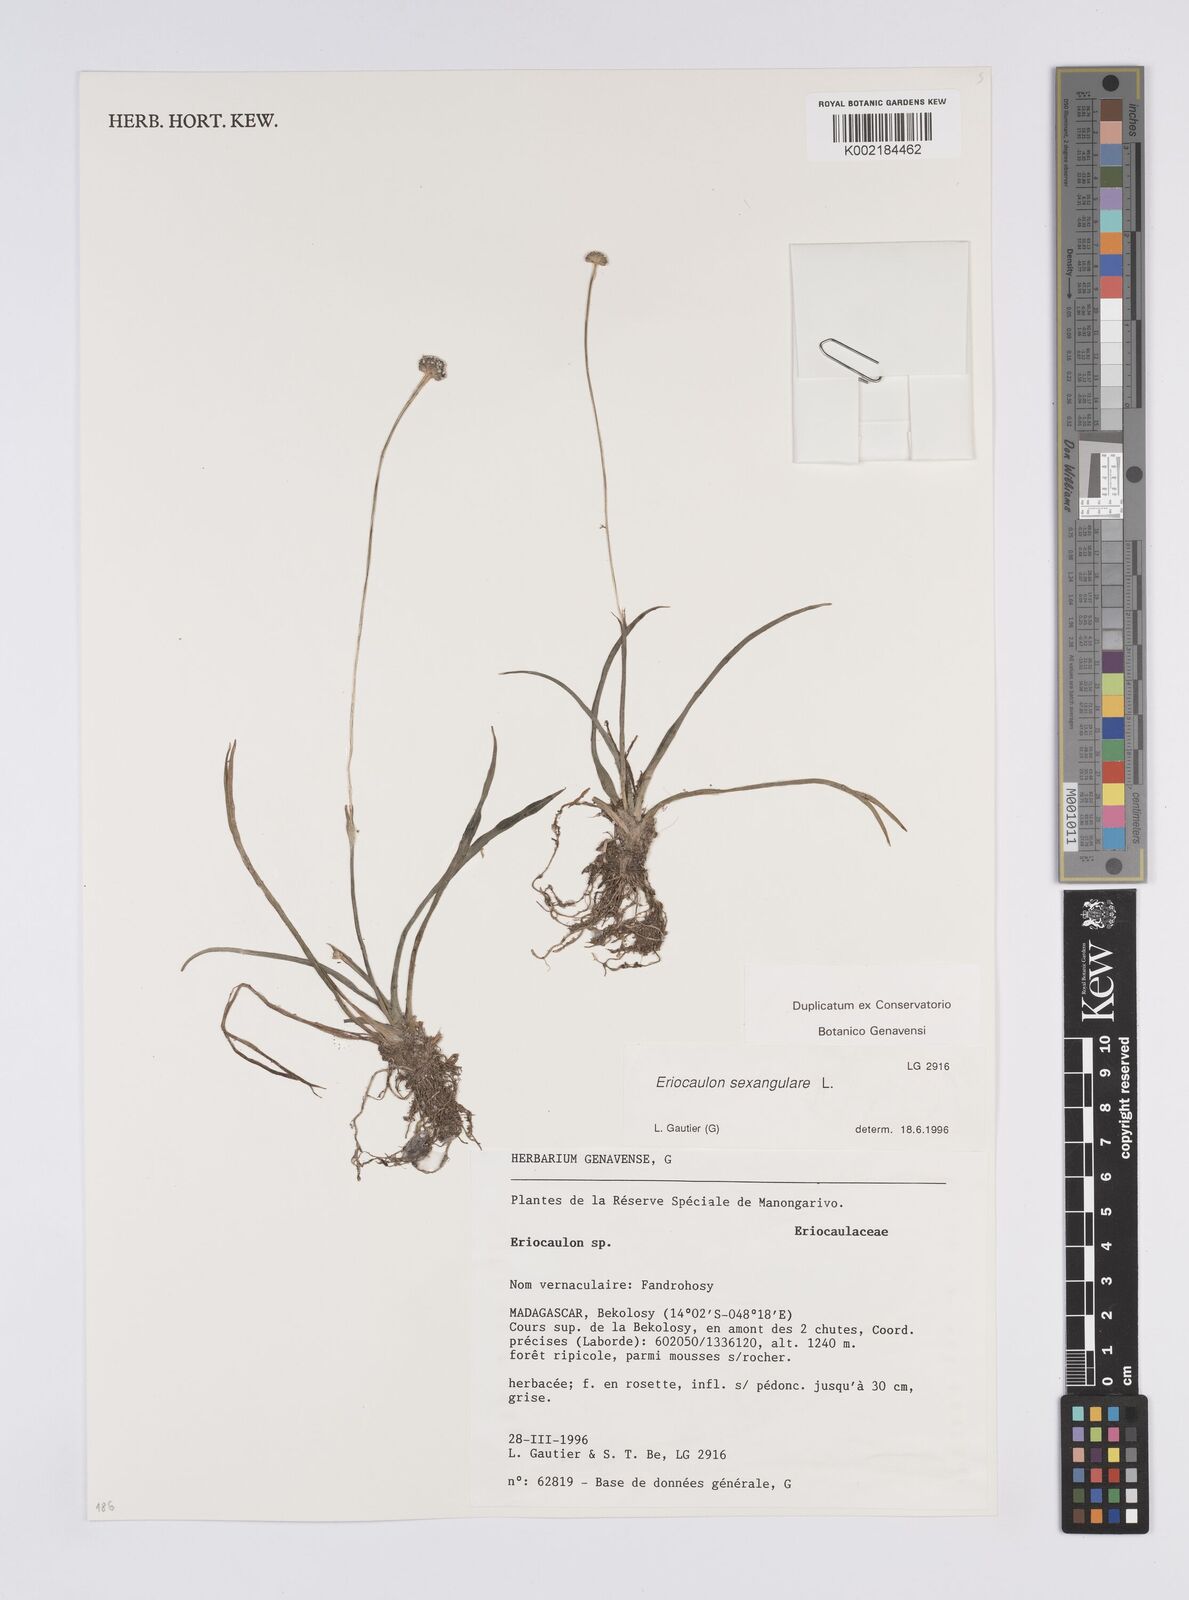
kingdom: Plantae
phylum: Tracheophyta
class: Liliopsida
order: Poales
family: Eriocaulaceae
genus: Eriocaulon
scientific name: Eriocaulon sexangulare
